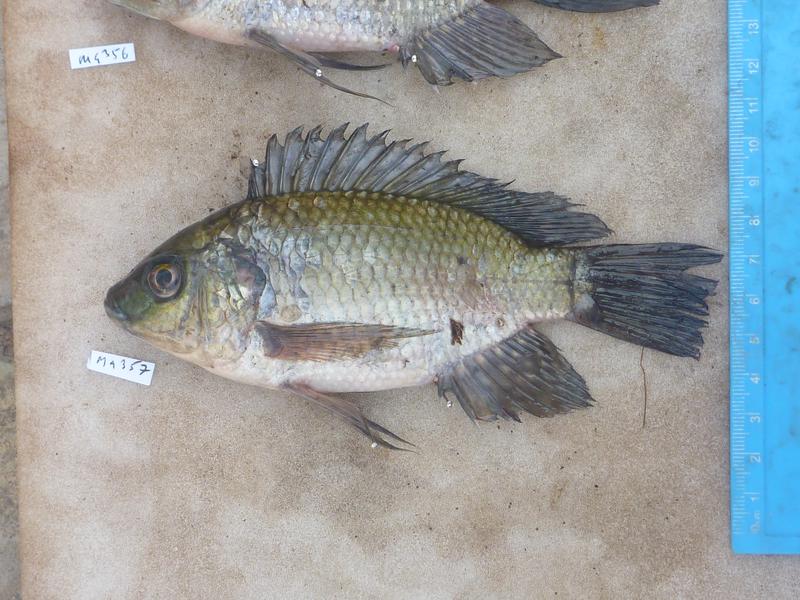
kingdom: Animalia
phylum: Chordata
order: Perciformes
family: Cichlidae
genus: Oreochromis
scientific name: Oreochromis leucostictus
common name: Blue spotted tilapia
